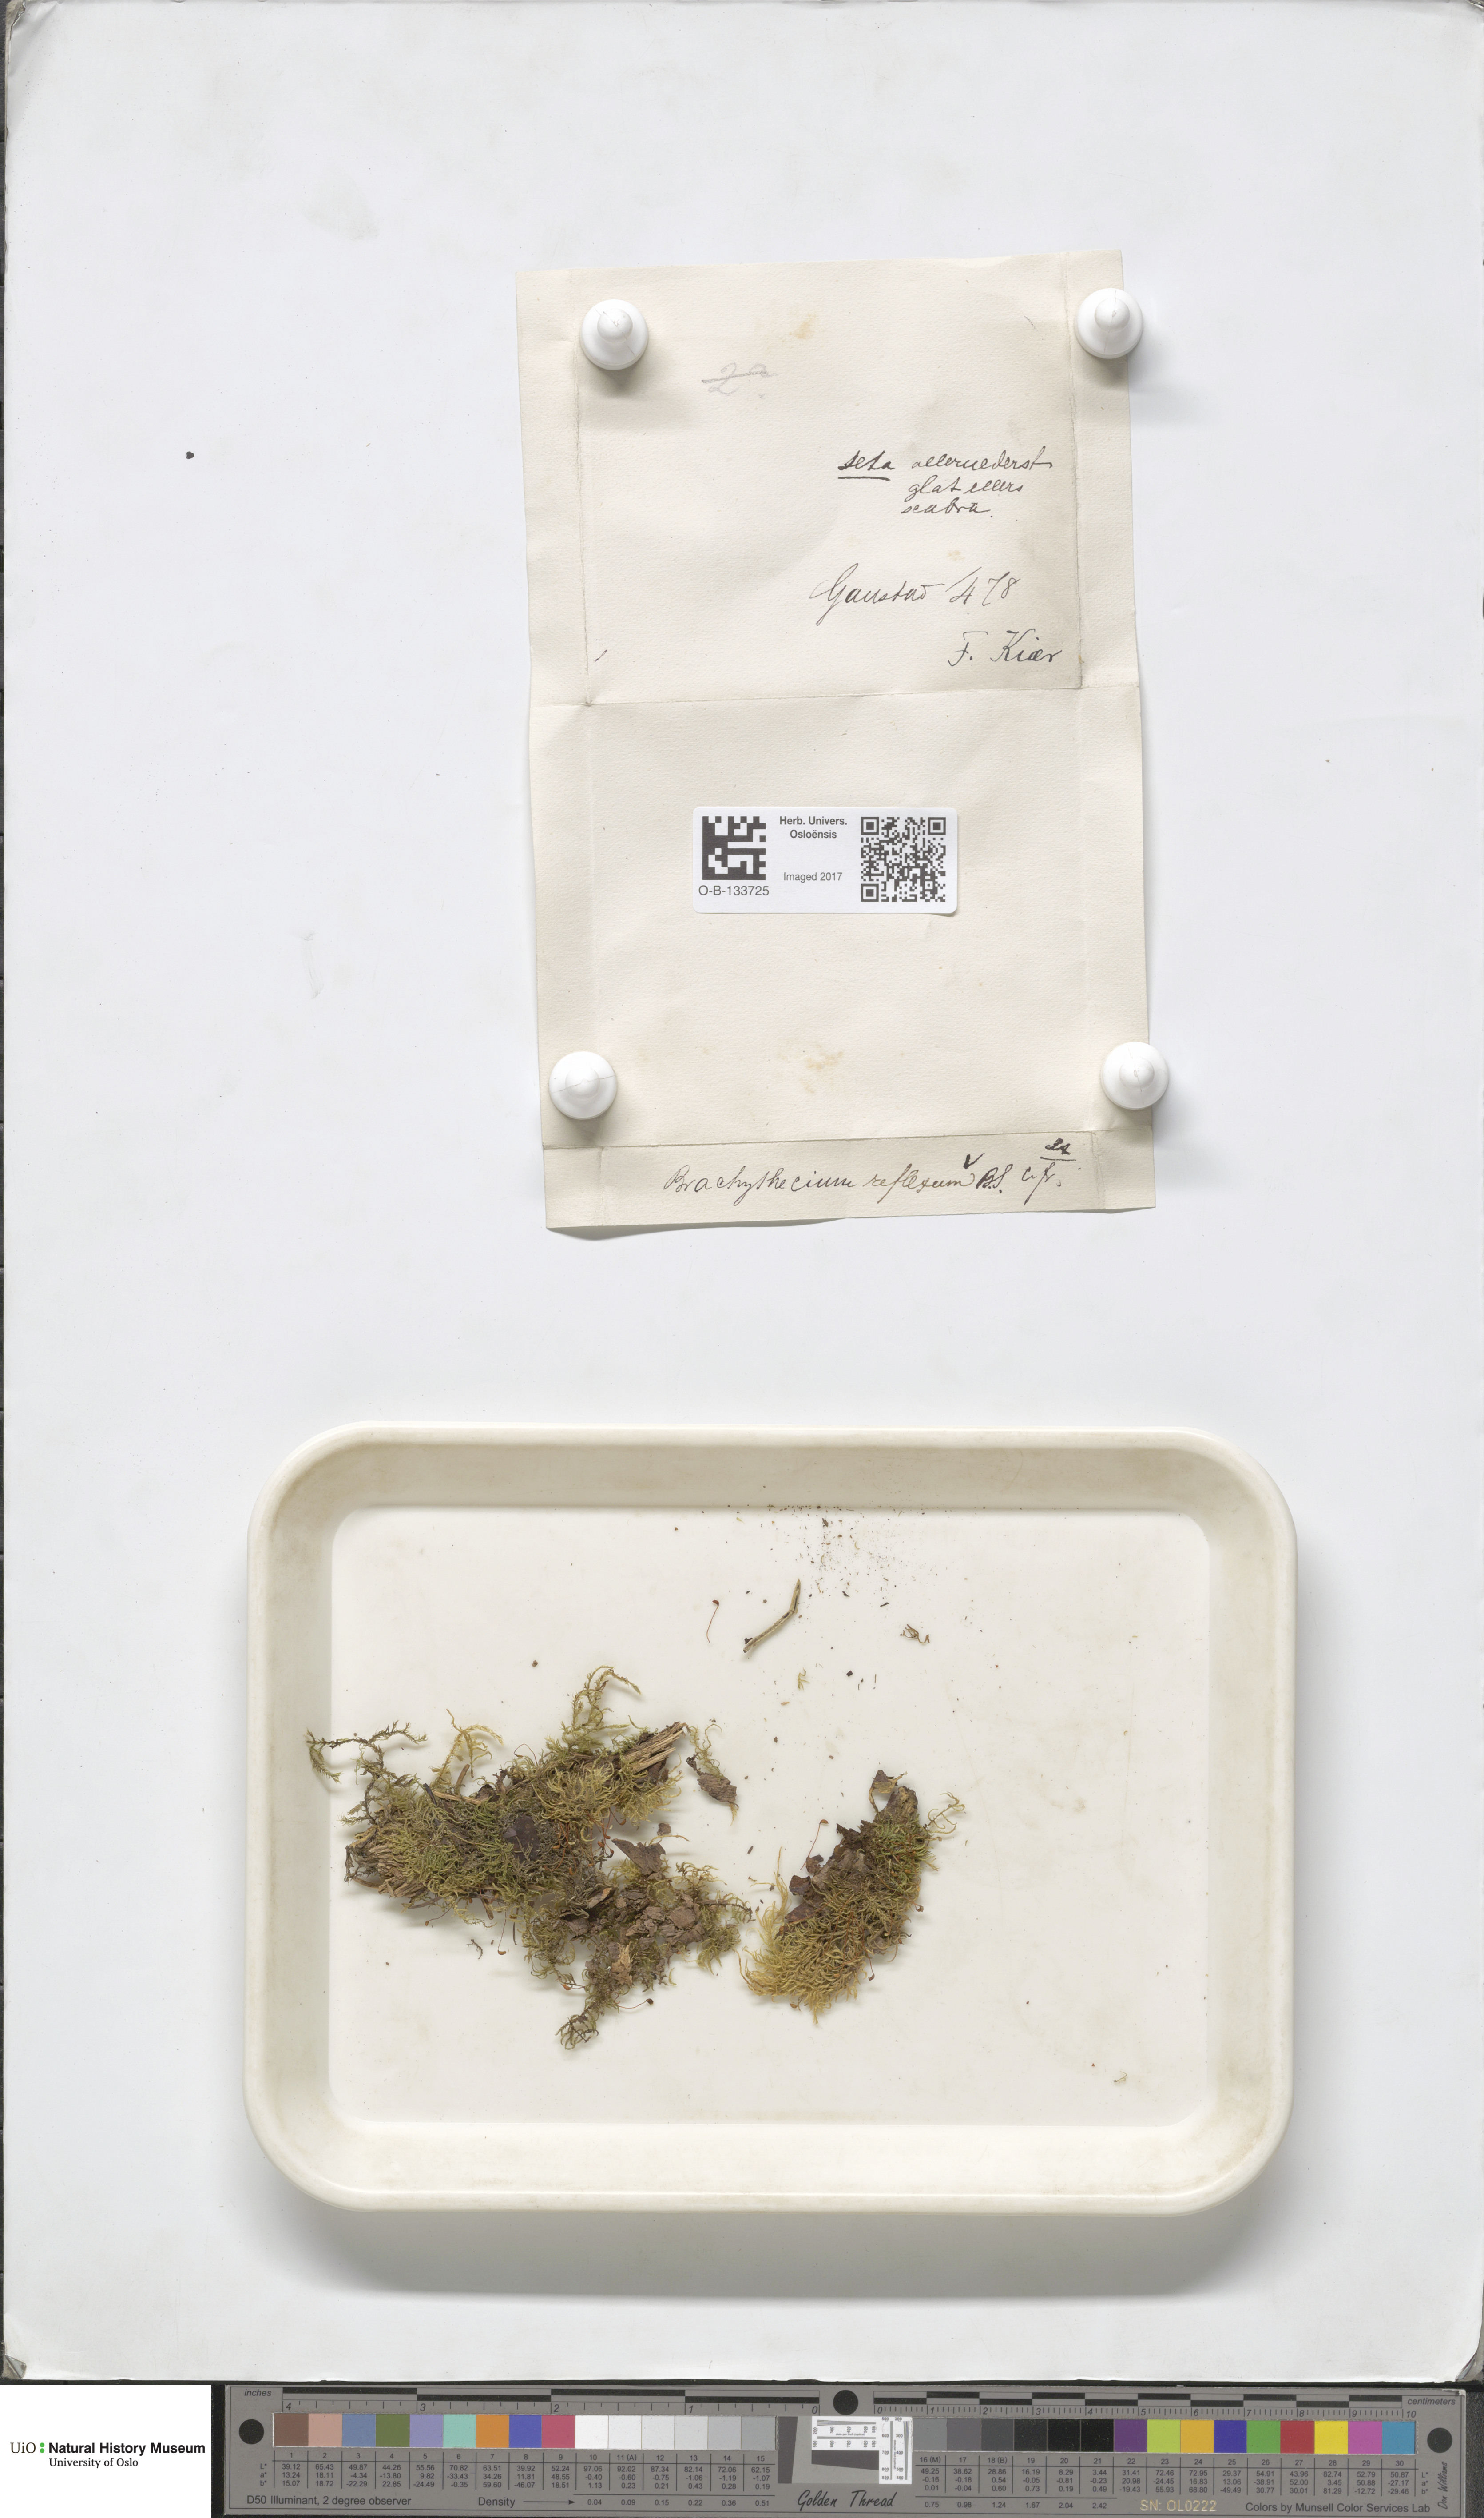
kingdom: Plantae
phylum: Bryophyta
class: Bryopsida
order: Hypnales
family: Brachytheciaceae
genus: Sciuro-hypnum
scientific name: Sciuro-hypnum reflexum
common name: Reflexed feather-moss
